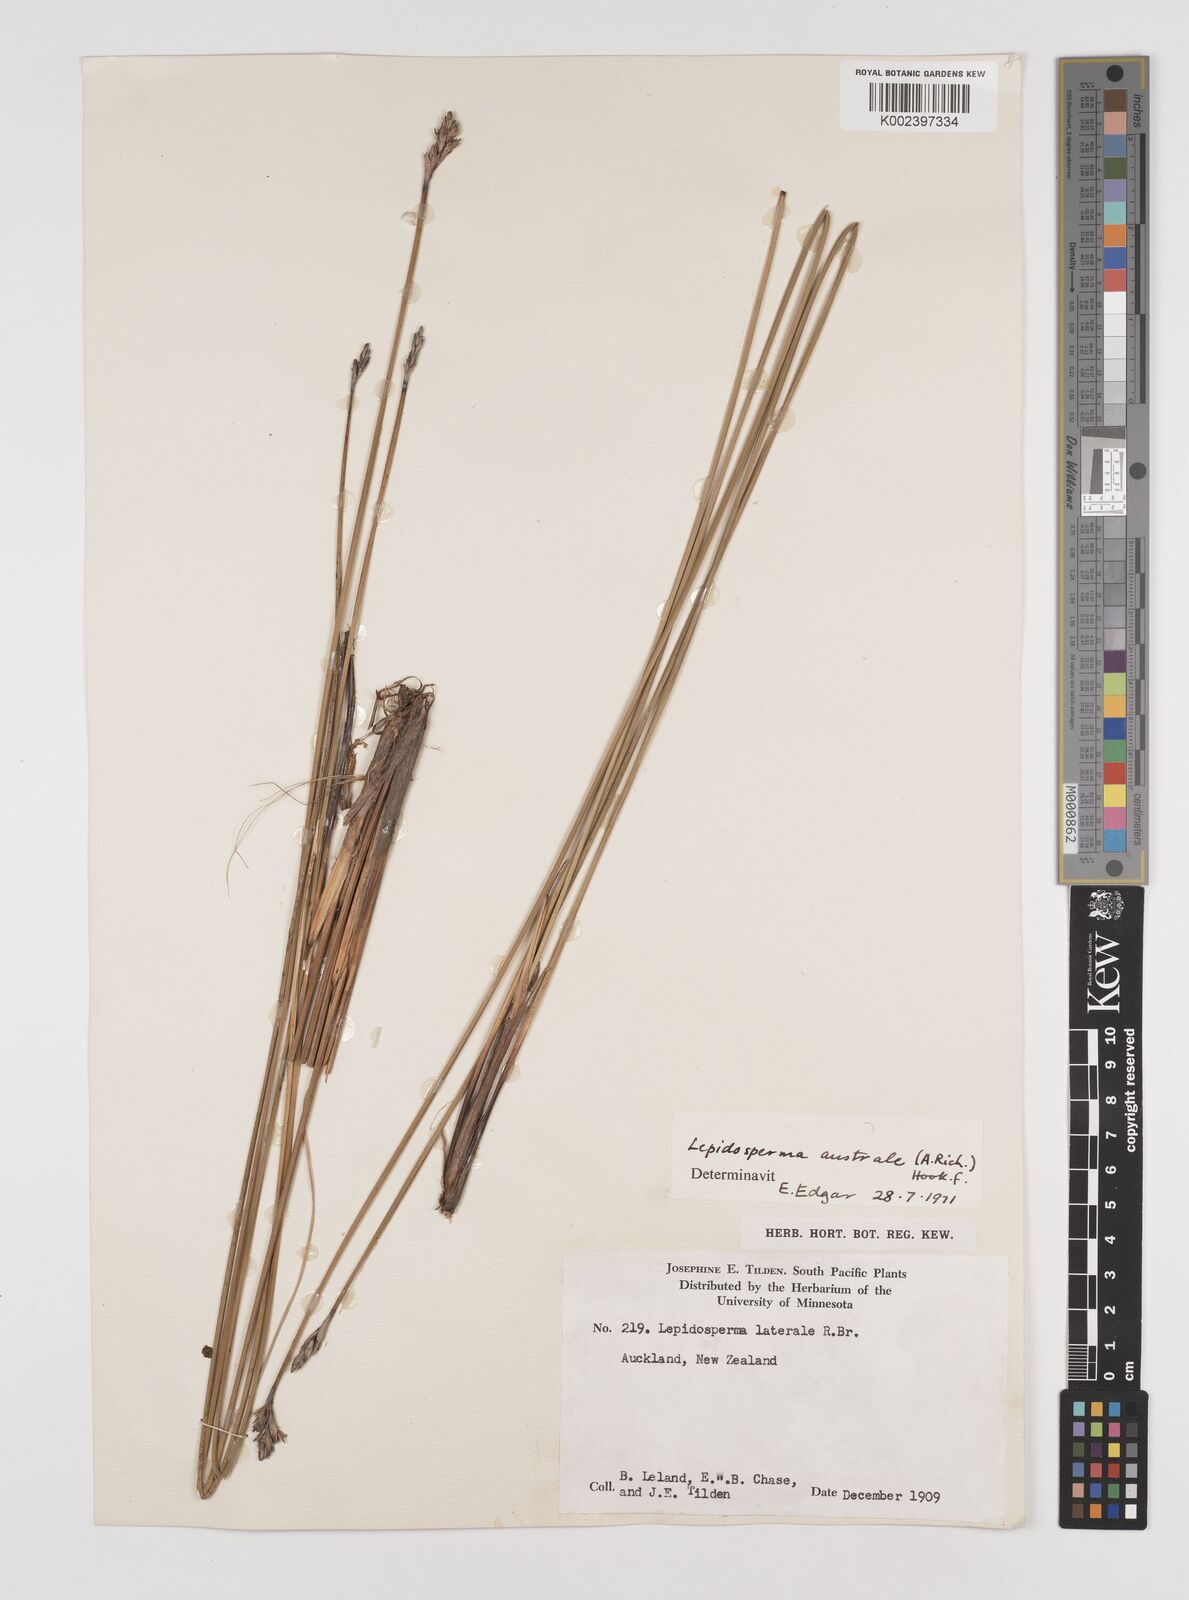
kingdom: Plantae
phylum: Tracheophyta
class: Liliopsida
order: Poales
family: Cyperaceae
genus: Lepidosperma
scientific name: Lepidosperma australe
